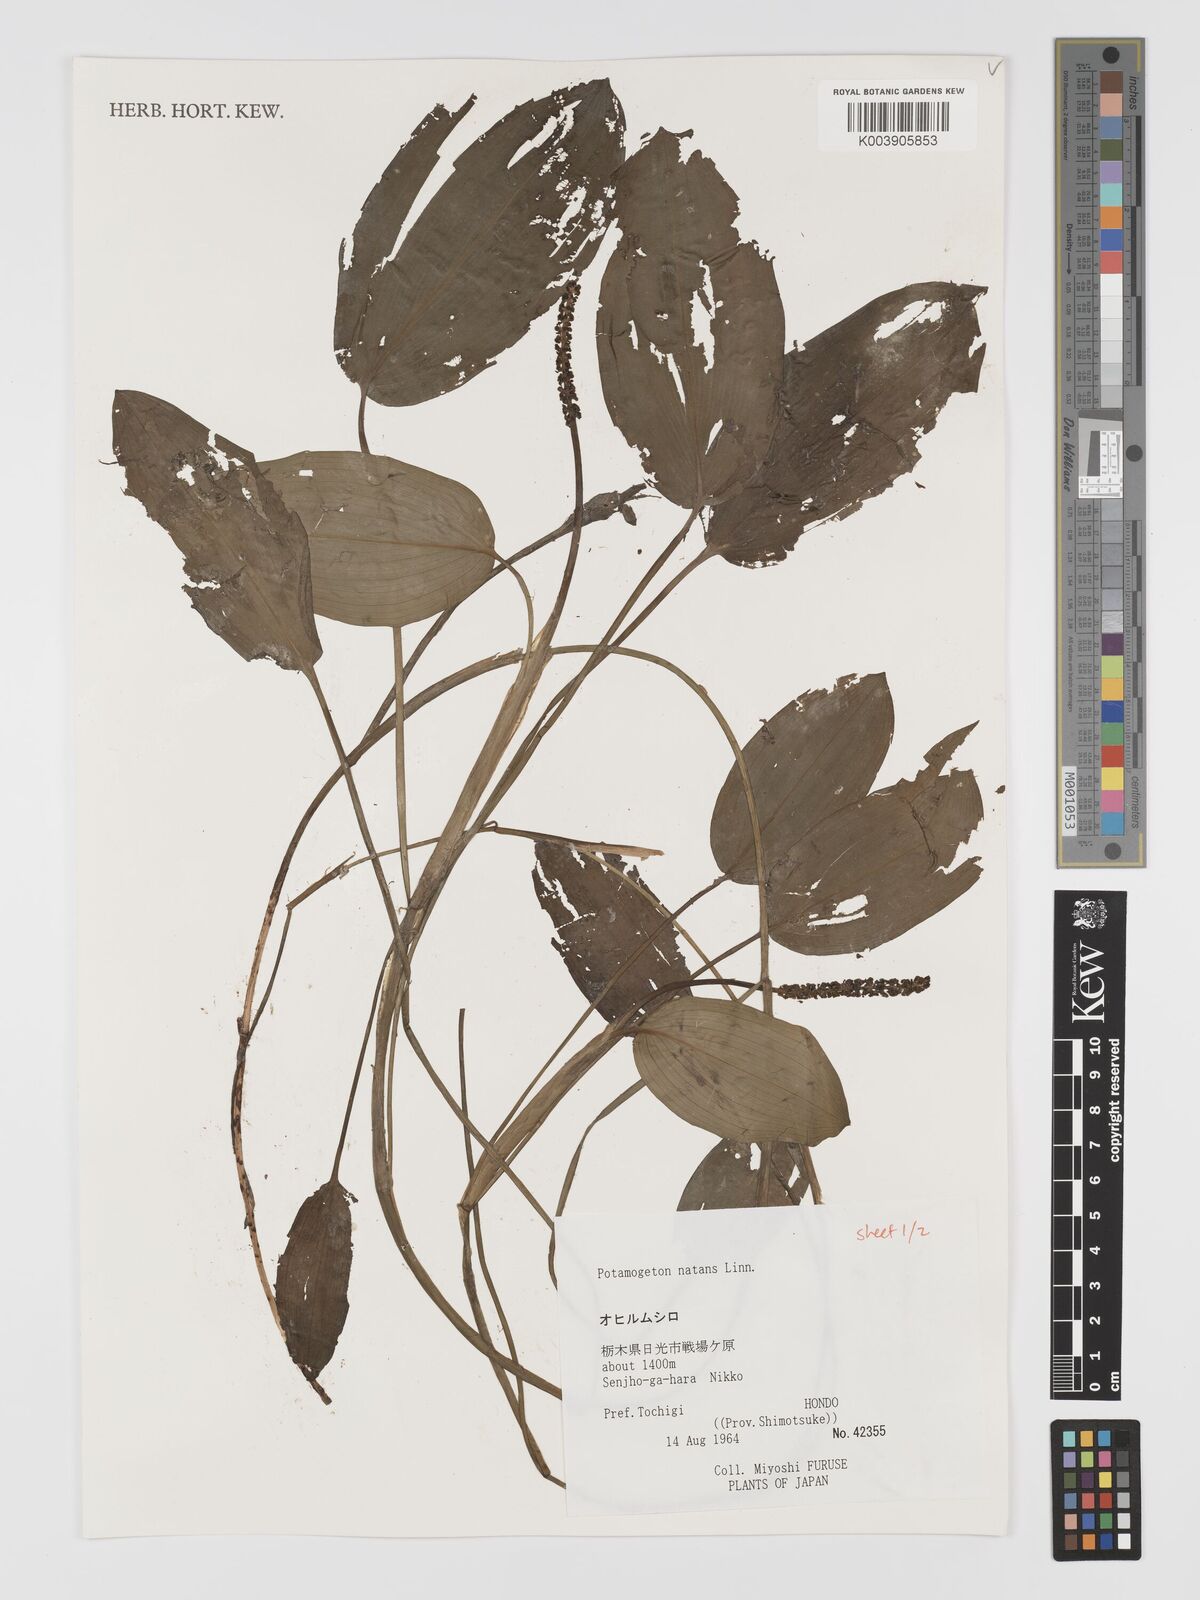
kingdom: Plantae
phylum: Tracheophyta
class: Liliopsida
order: Alismatales
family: Potamogetonaceae
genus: Potamogeton
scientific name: Potamogeton natans
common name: Broad-leaved pondweed
